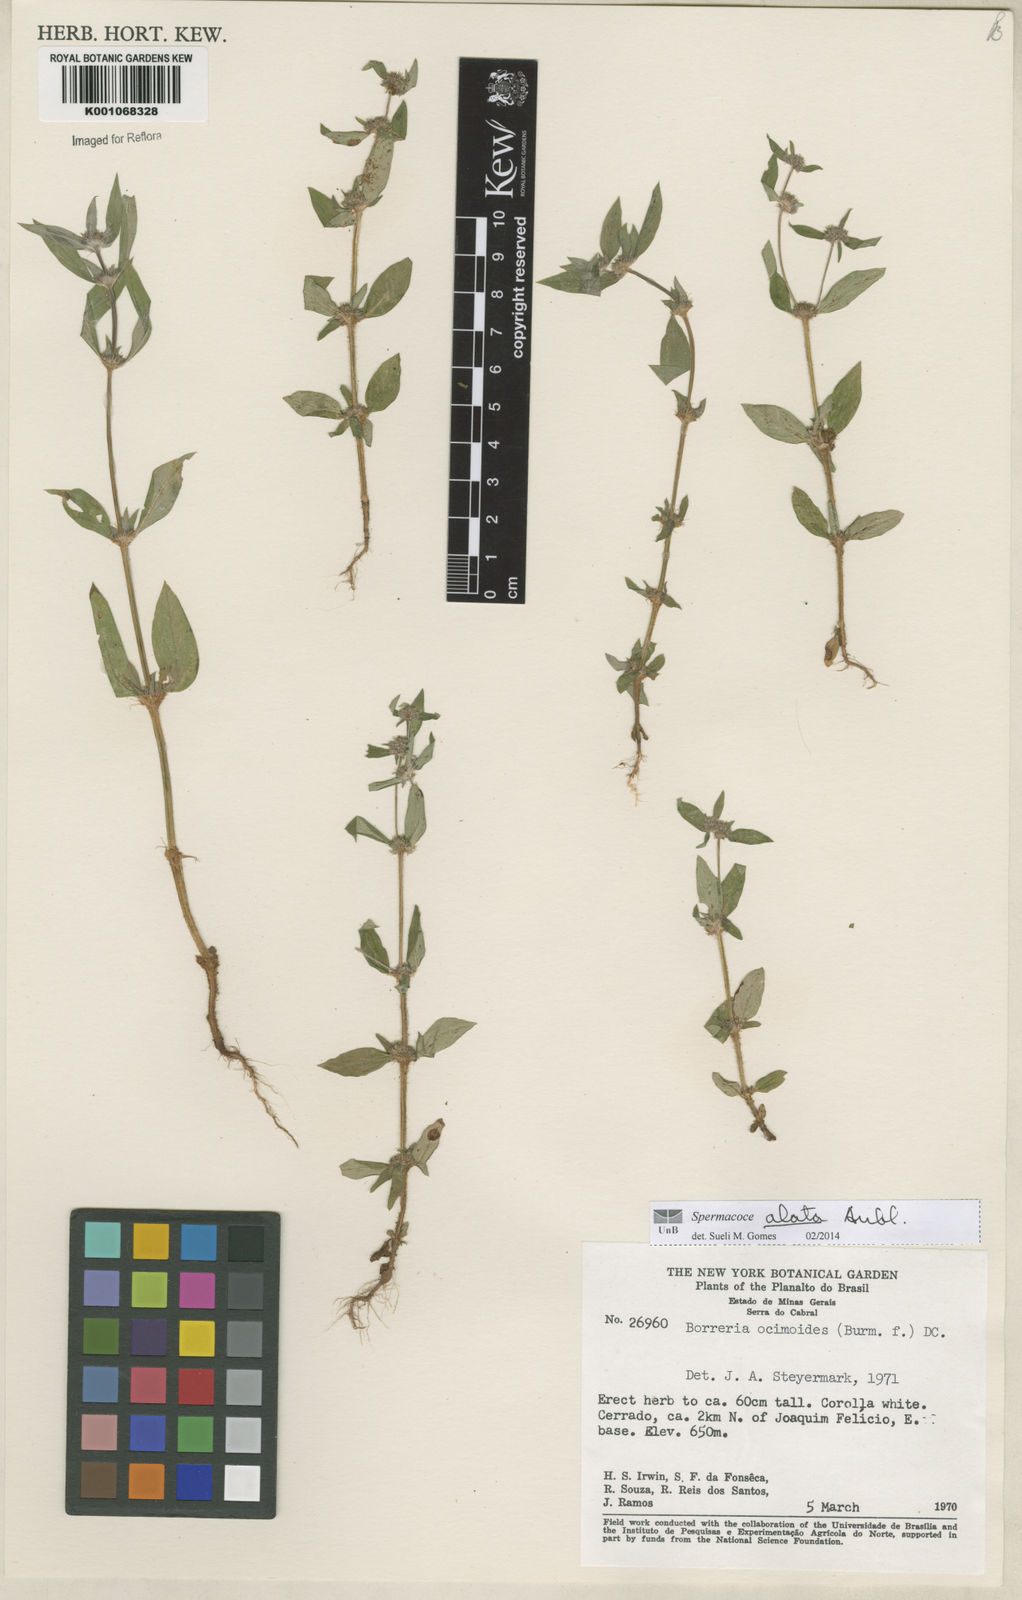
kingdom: Plantae
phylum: Tracheophyta
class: Magnoliopsida
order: Gentianales
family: Rubiaceae
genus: Spermacoce
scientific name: Spermacoce
